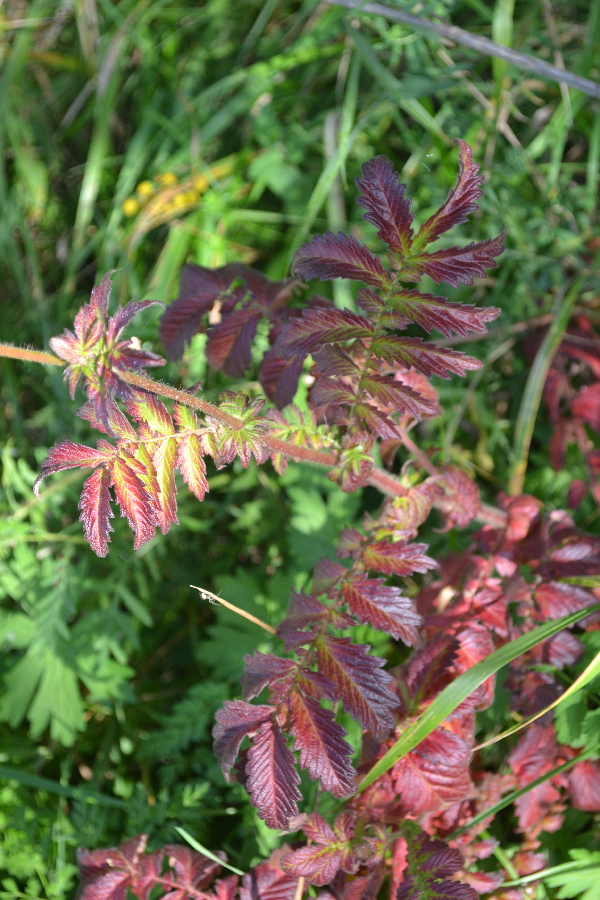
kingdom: Plantae
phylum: Tracheophyta
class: Magnoliopsida
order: Rosales
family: Rosaceae
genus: Agrimonia
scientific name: Agrimonia procera
